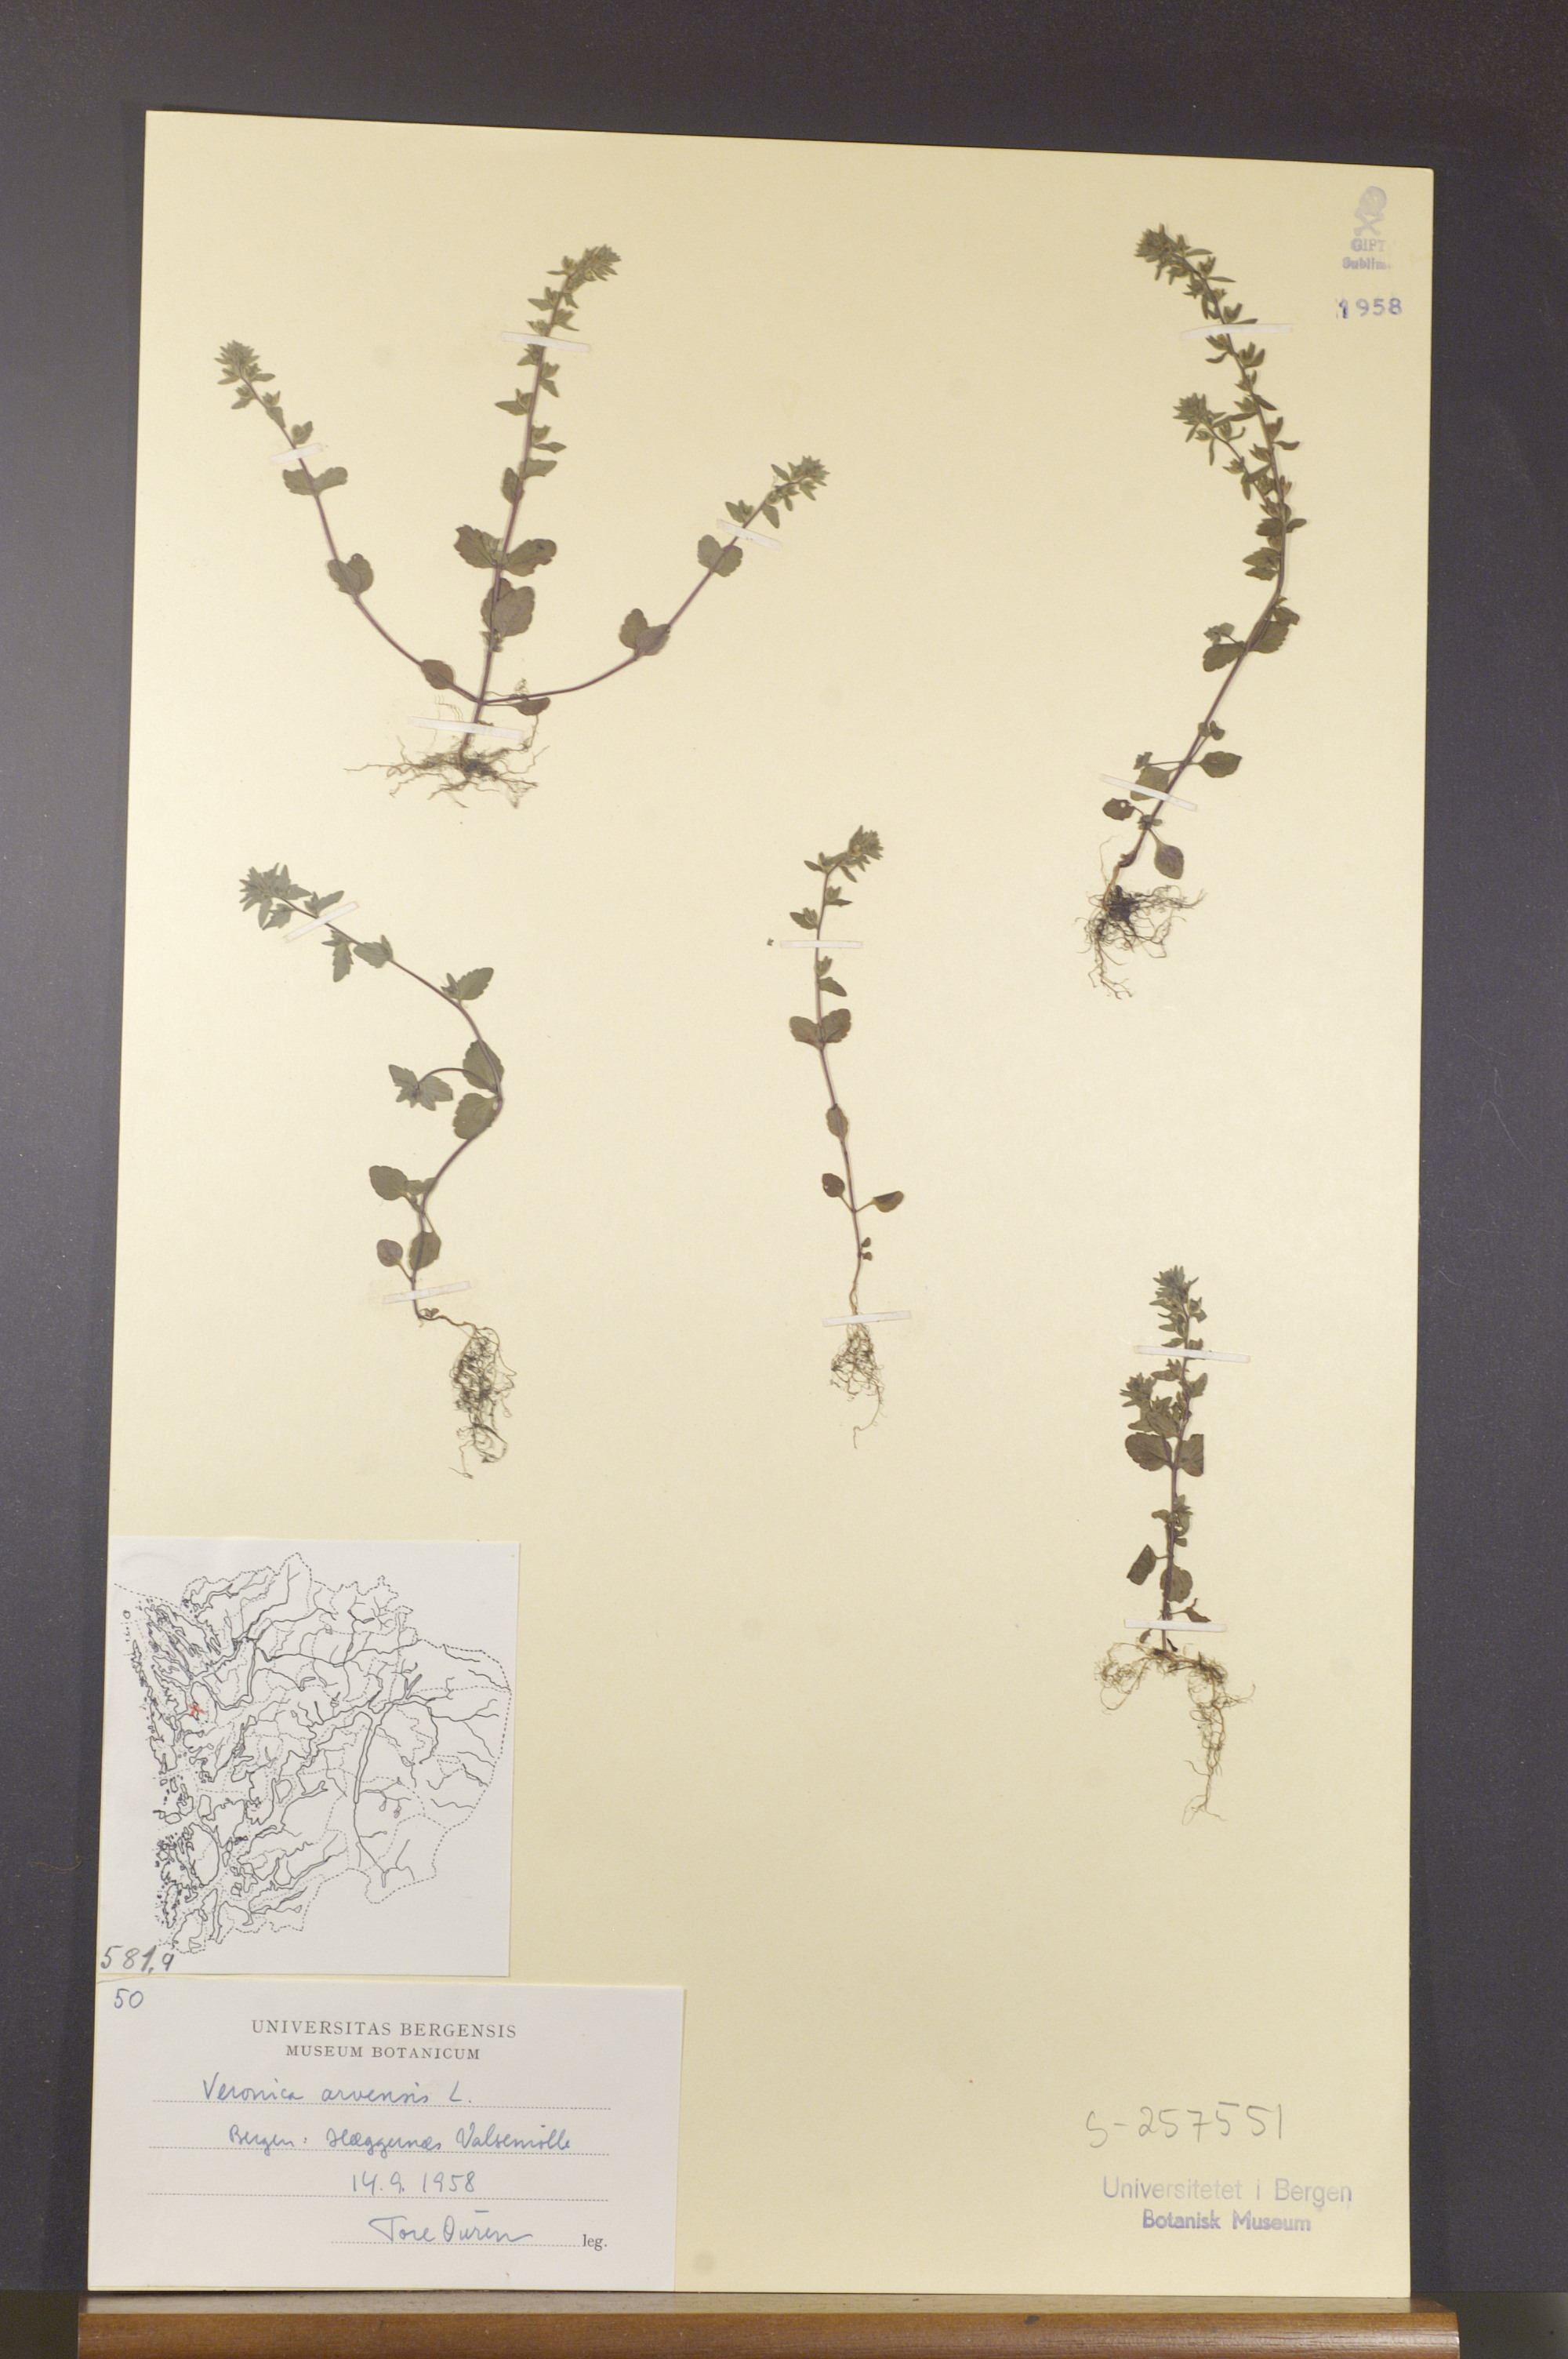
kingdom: Plantae
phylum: Tracheophyta
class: Magnoliopsida
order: Lamiales
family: Plantaginaceae
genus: Veronica
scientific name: Veronica arvensis
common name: Corn speedwell
